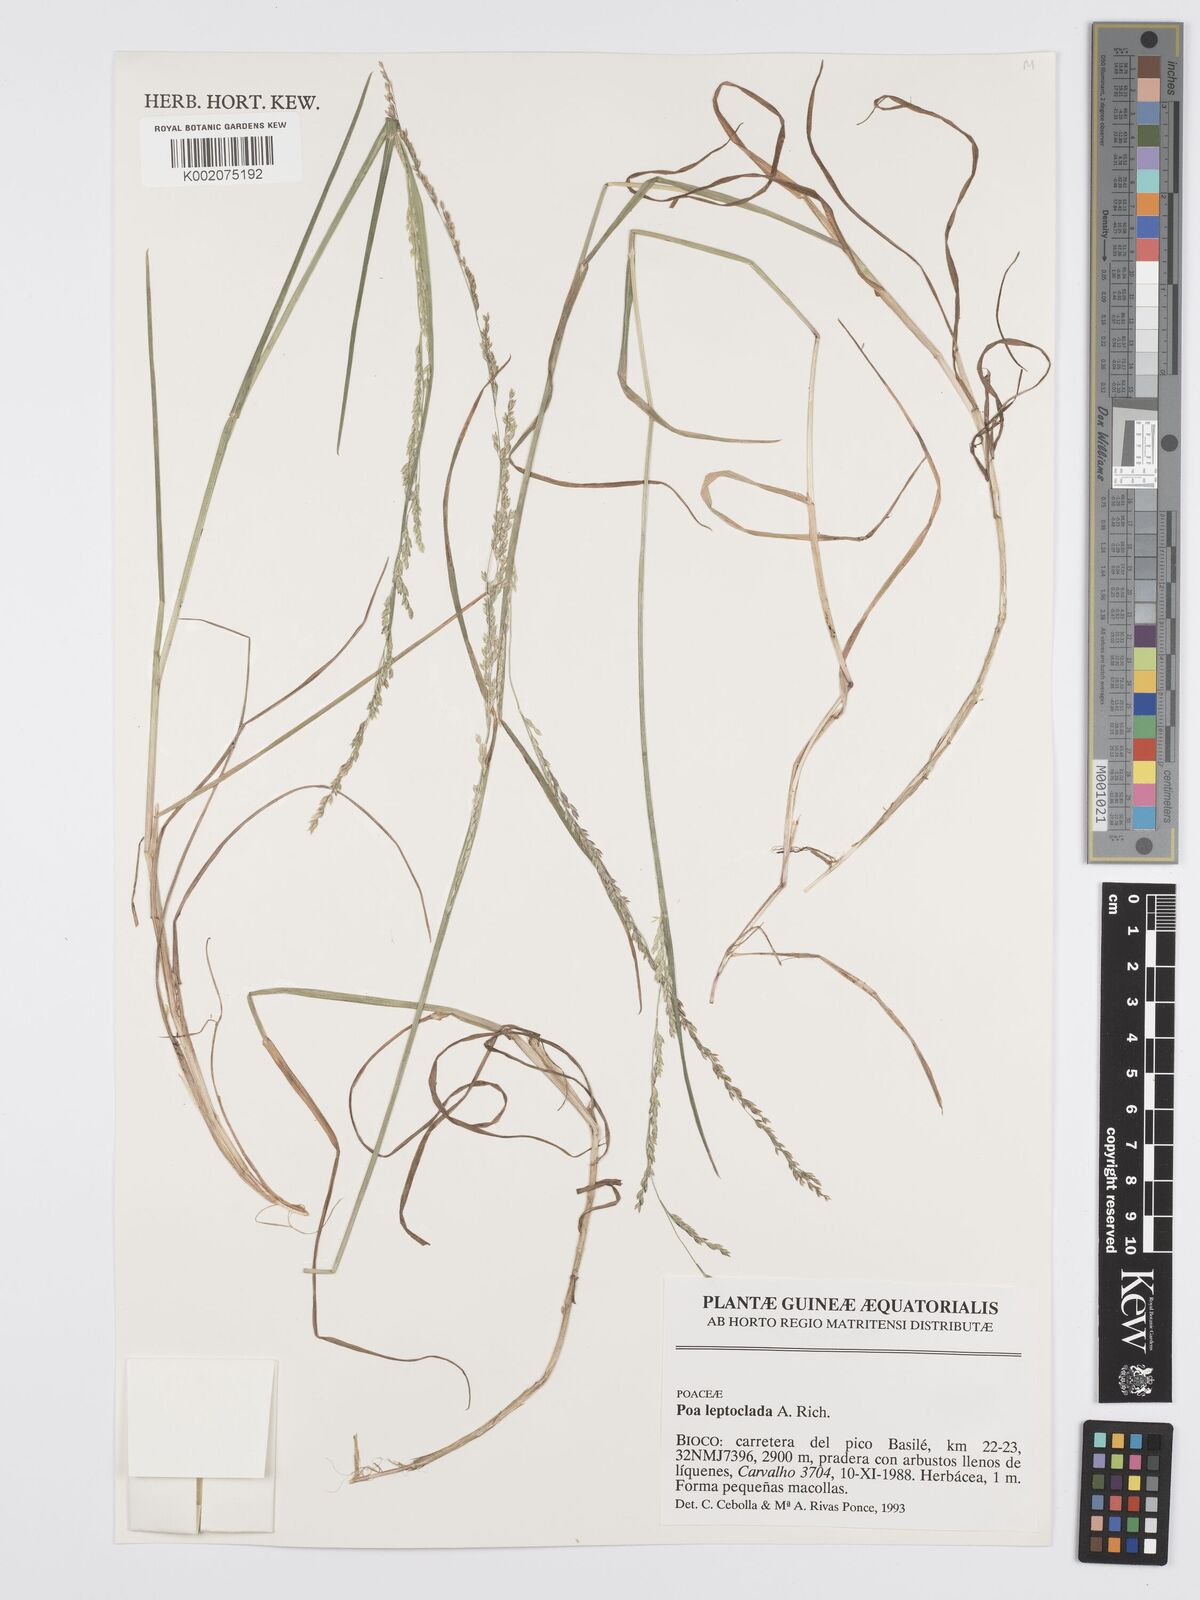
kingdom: Plantae
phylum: Tracheophyta
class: Liliopsida
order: Poales
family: Poaceae
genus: Poa
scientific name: Poa leptoclada
